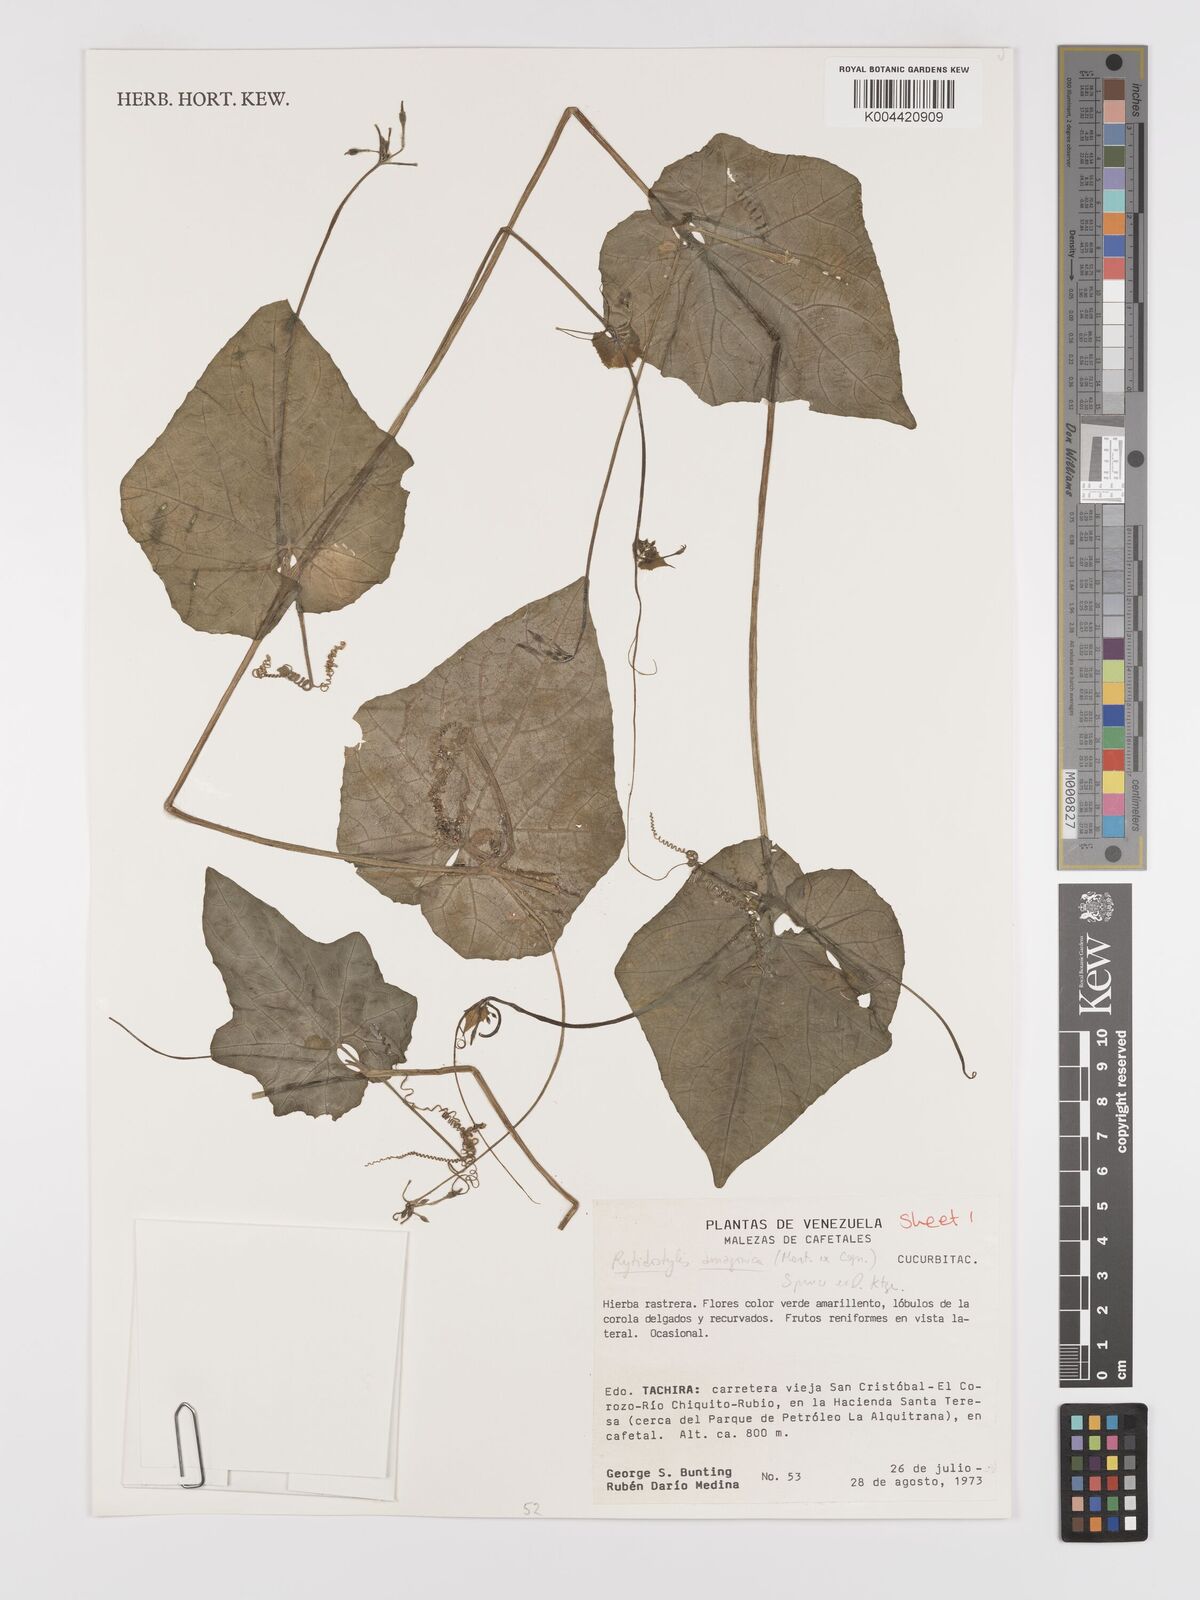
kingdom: Plantae
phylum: Tracheophyta
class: Magnoliopsida
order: Cucurbitales
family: Cucurbitaceae
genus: Cyclanthera
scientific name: Cyclanthera carthagenensis
